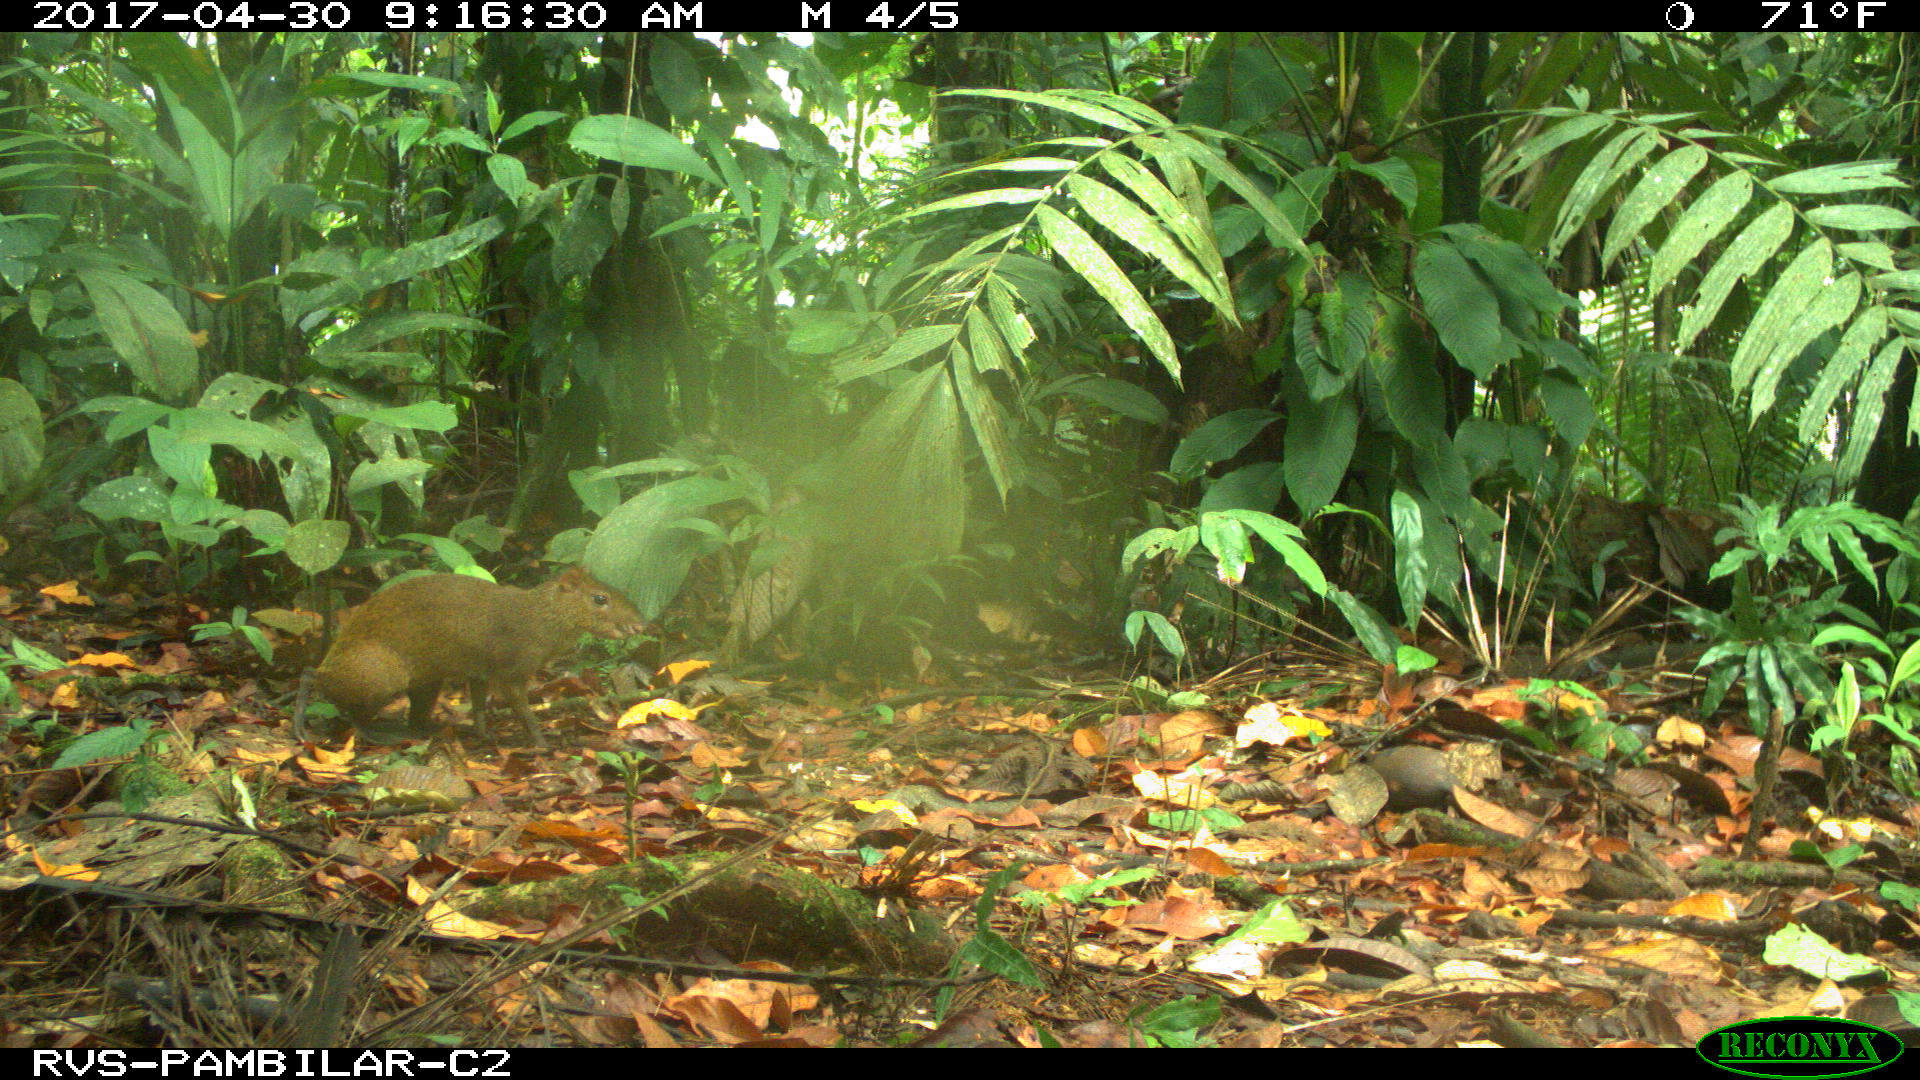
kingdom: Animalia
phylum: Chordata
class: Mammalia
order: Rodentia
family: Dasyproctidae
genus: Dasyprocta
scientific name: Dasyprocta punctata
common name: Central american agouti
